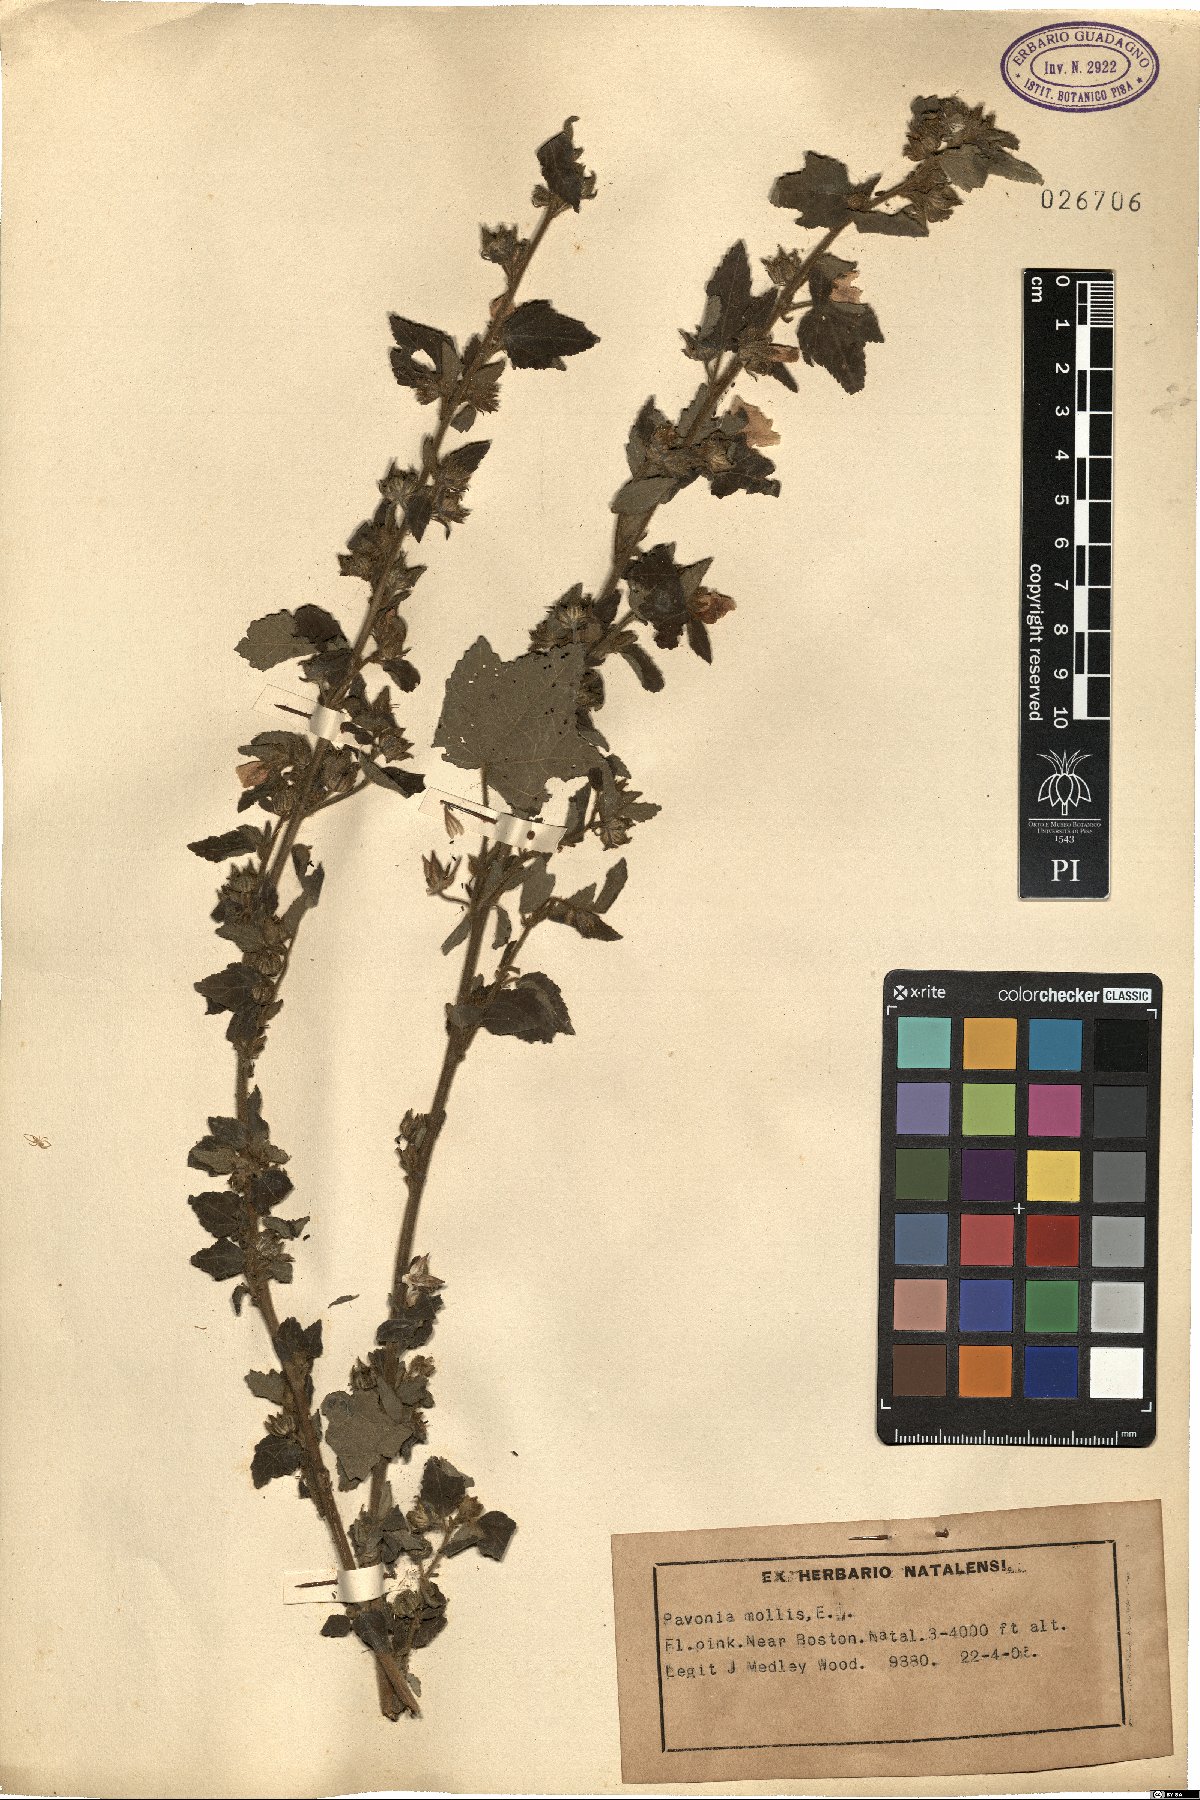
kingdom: Plantae
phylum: Tracheophyta
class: Magnoliopsida
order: Malvales
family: Malvaceae
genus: Pavonia
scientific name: Pavonia mollis
